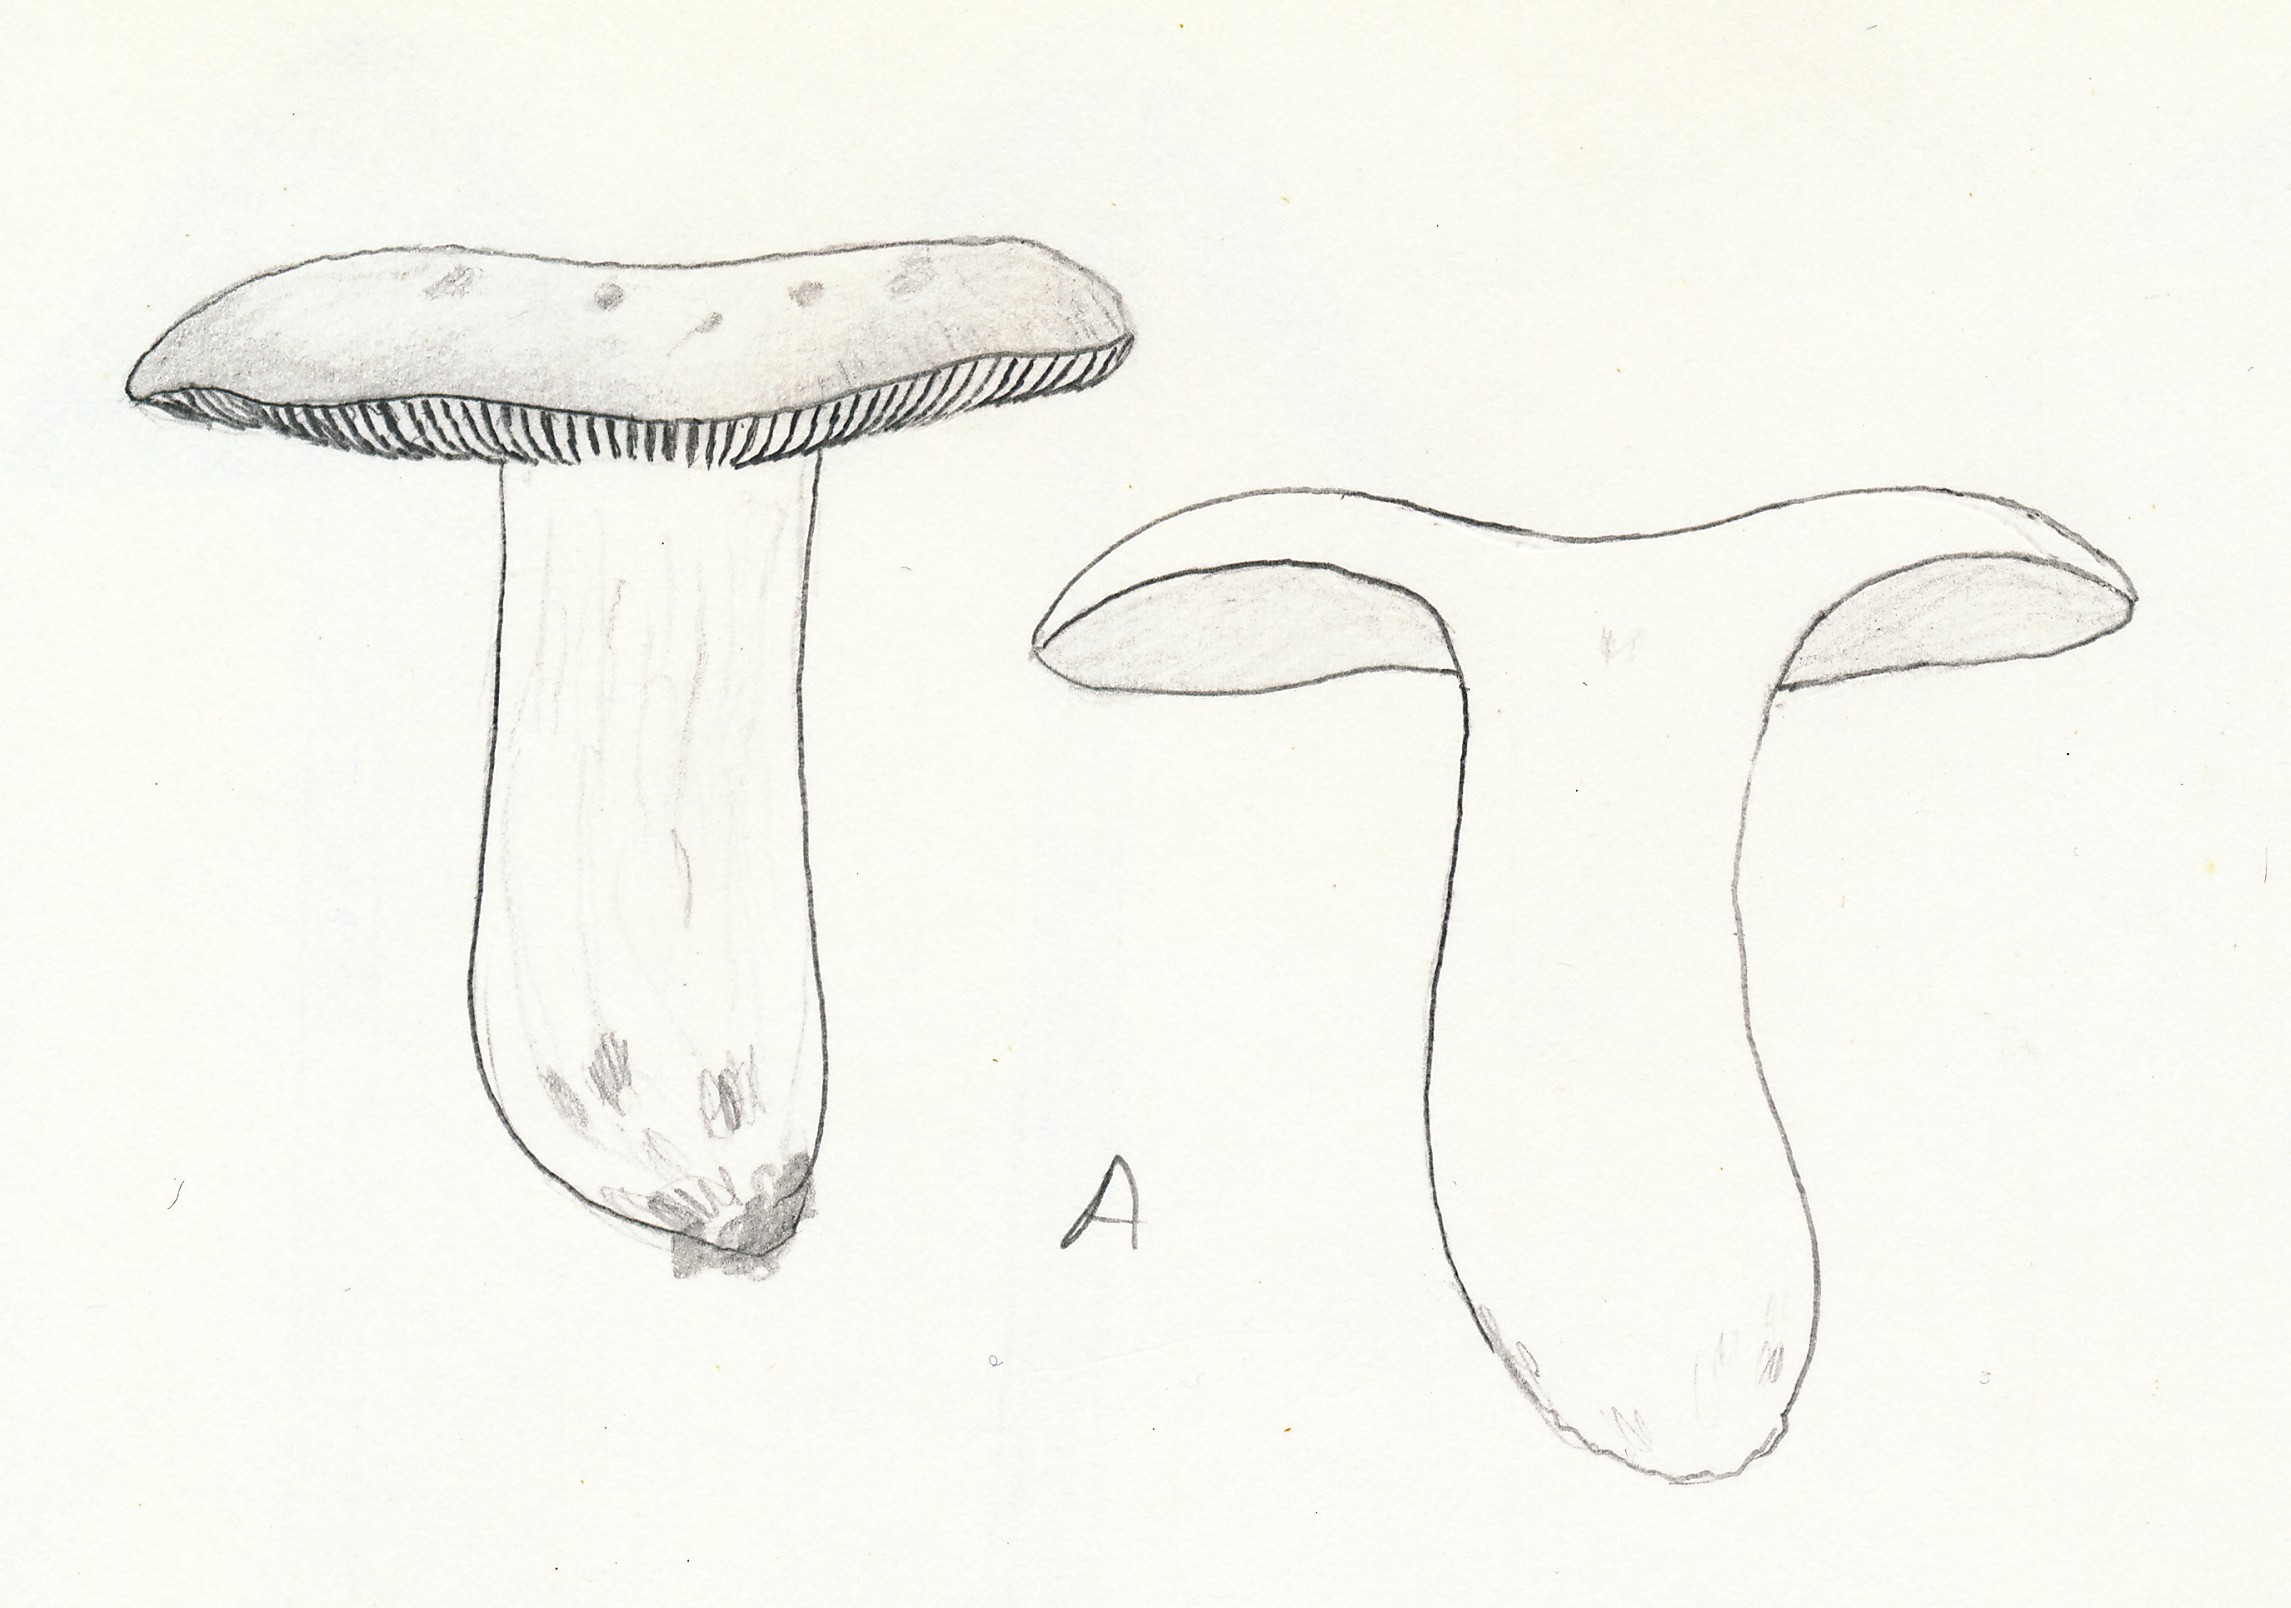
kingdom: Fungi
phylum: Basidiomycota
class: Agaricomycetes
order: Russulales
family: Russulaceae
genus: Russula
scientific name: Russula maculata
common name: plettet skørhat
